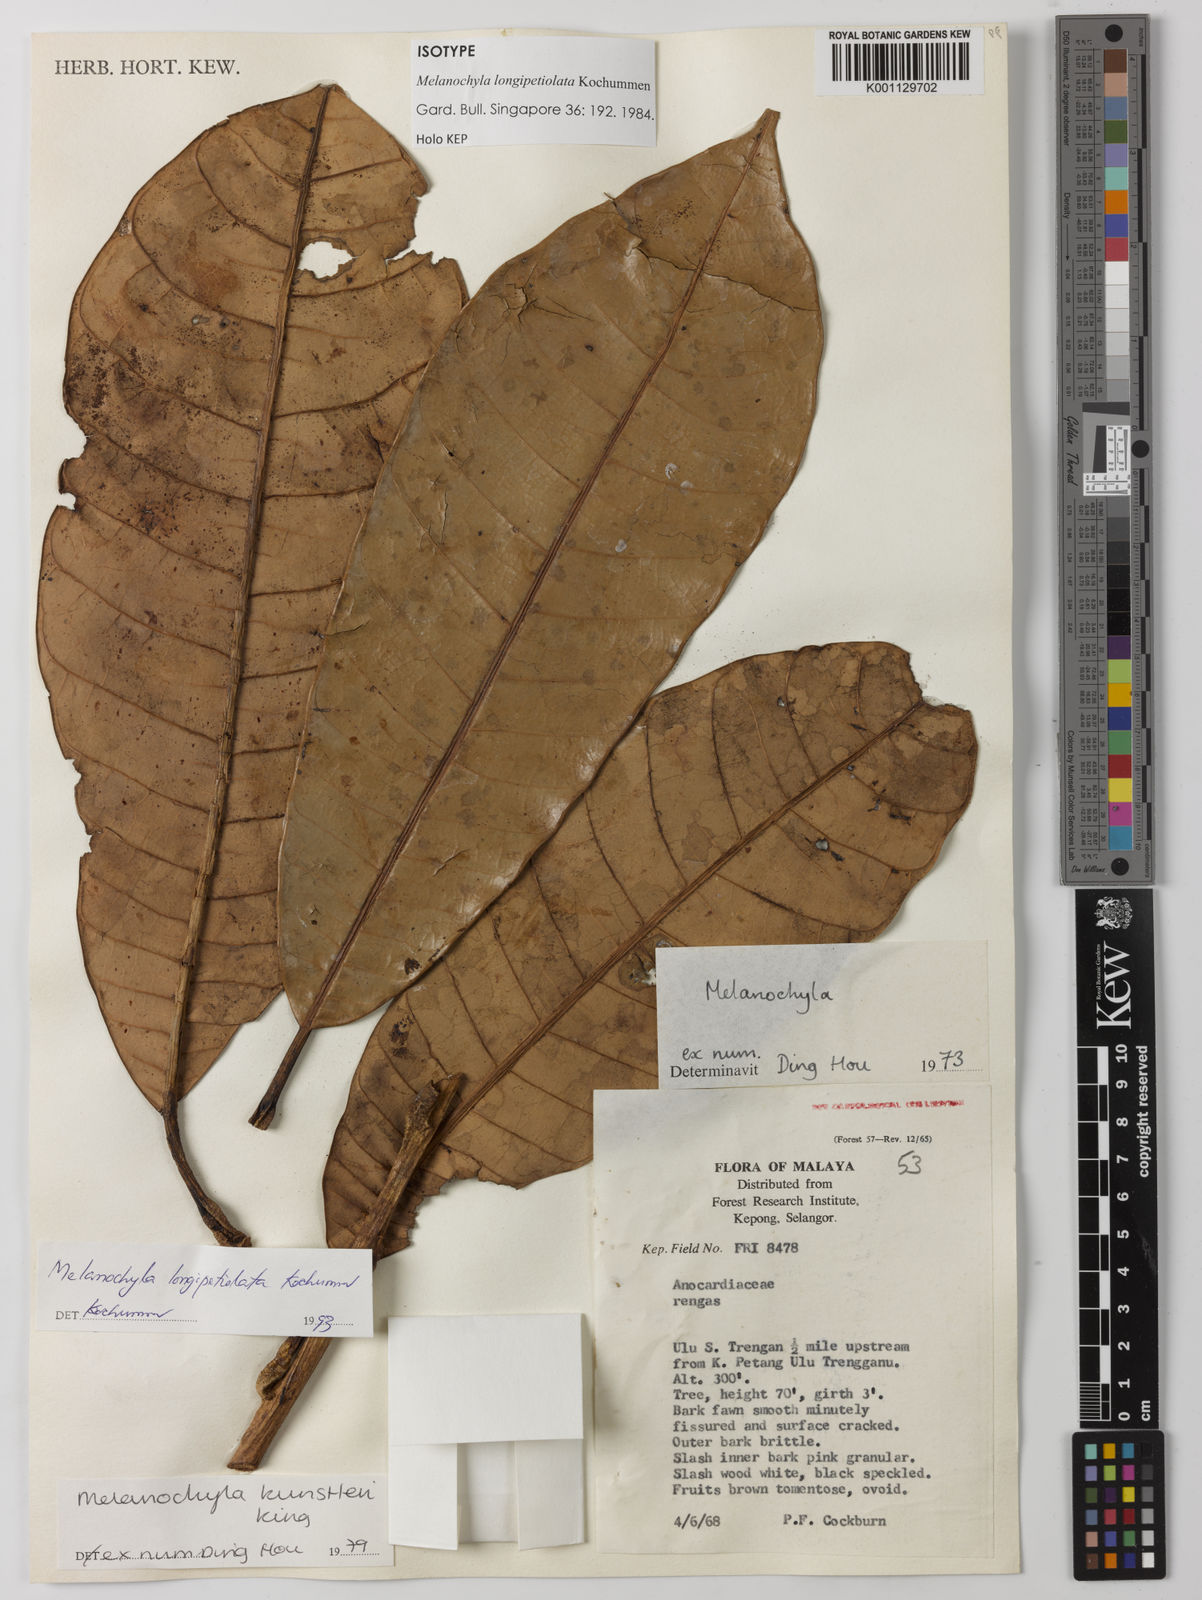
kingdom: Plantae
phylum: Tracheophyta
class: Magnoliopsida
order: Sapindales
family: Anacardiaceae
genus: Melanochyla
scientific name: Melanochyla longipetiolata
